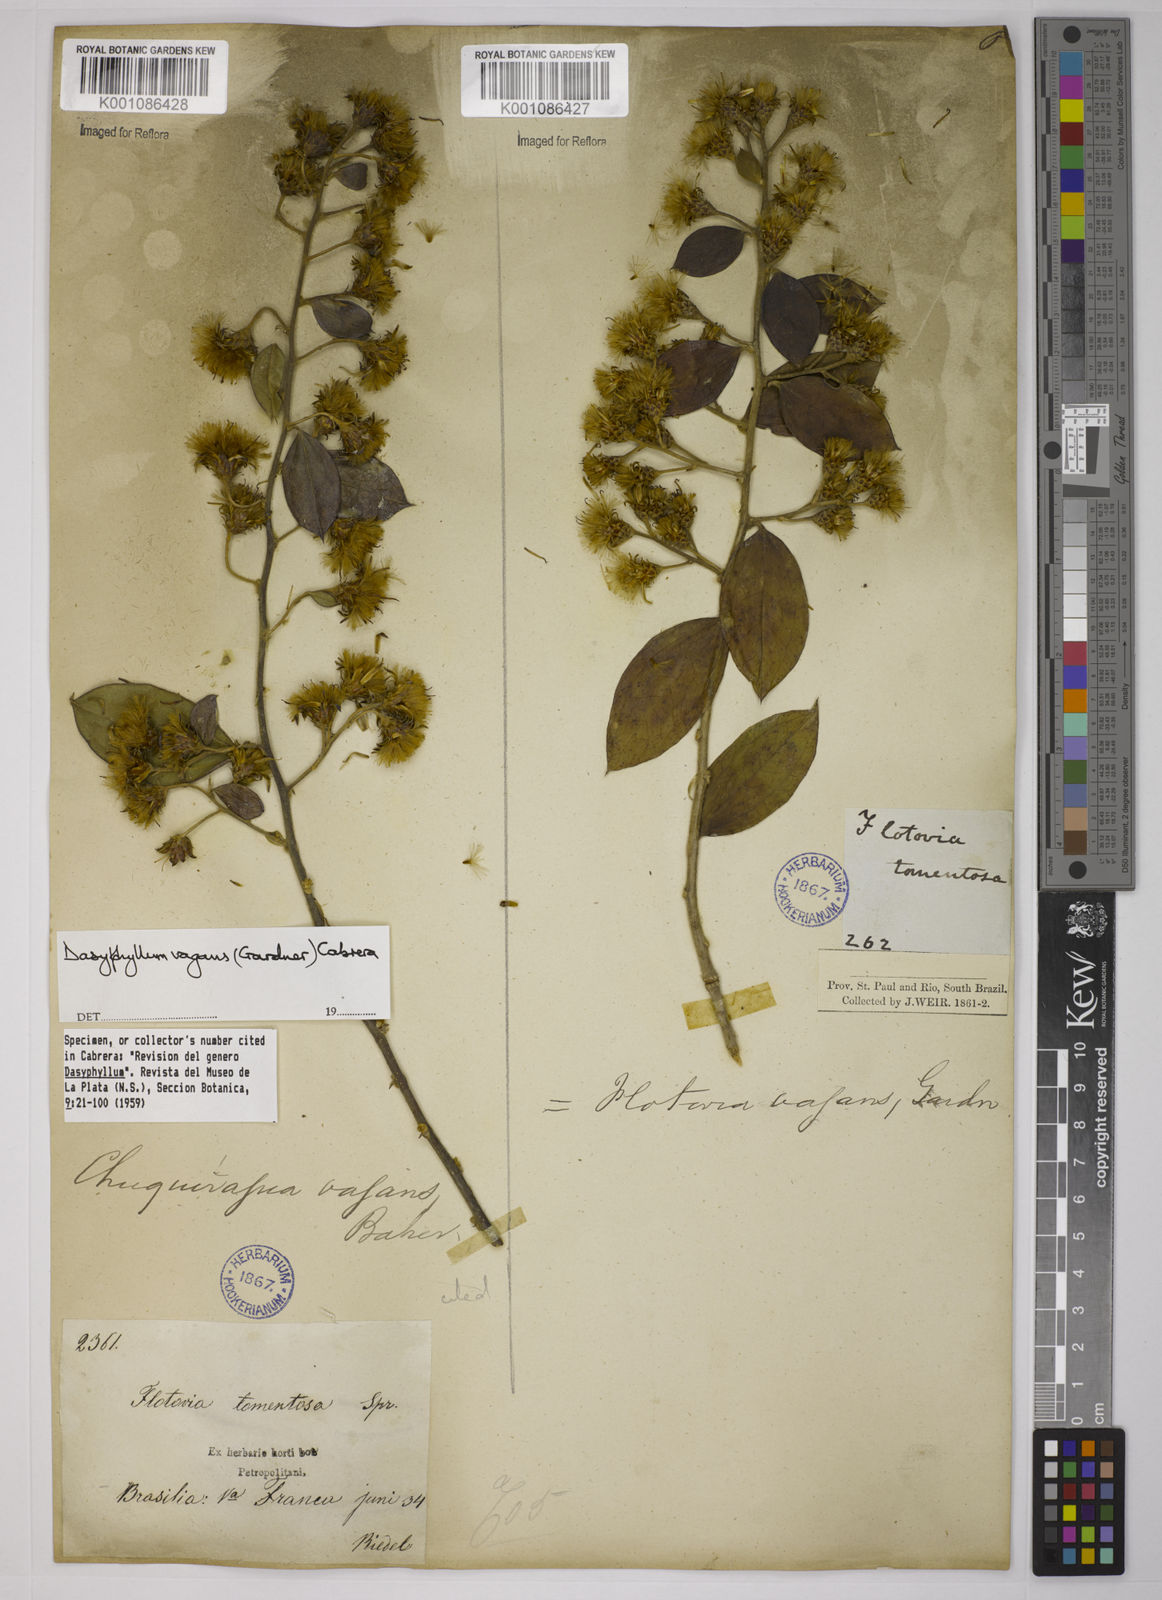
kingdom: Plantae
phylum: Tracheophyta
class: Magnoliopsida
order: Asterales
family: Asteraceae
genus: Dasyphyllum
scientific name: Dasyphyllum vagans
